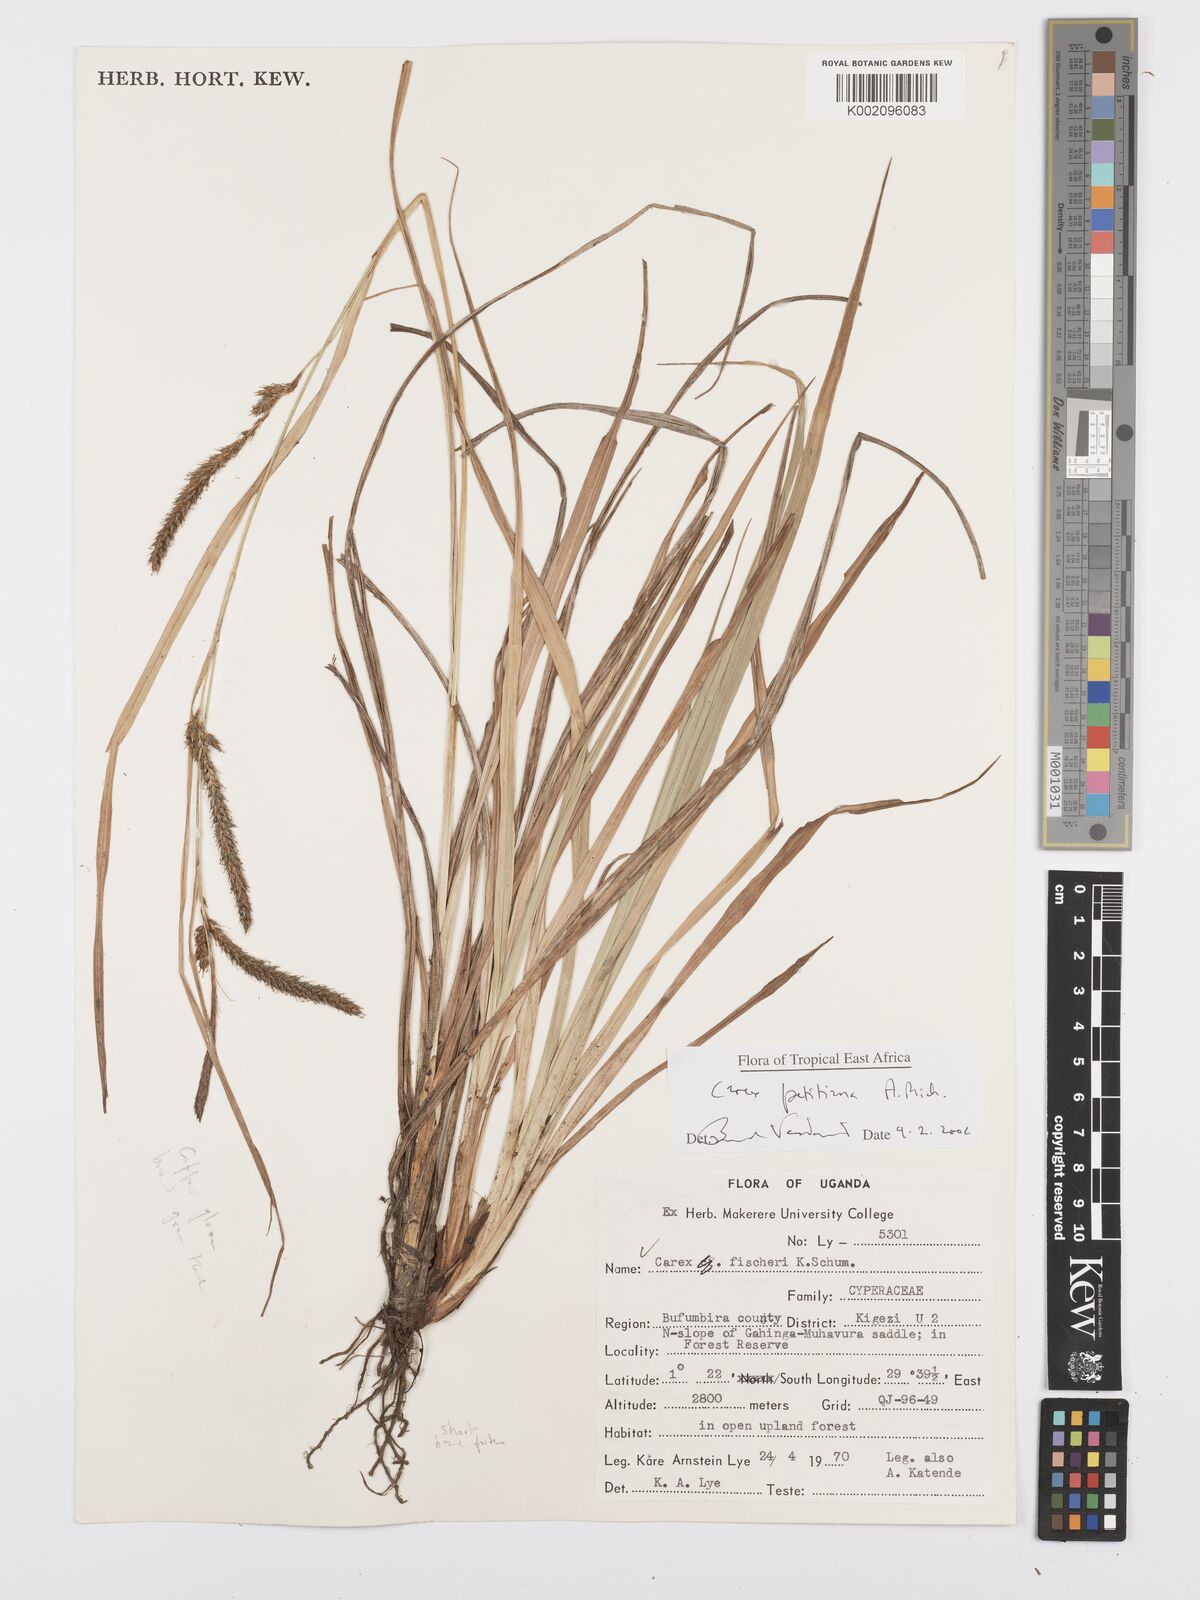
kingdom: Plantae
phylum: Tracheophyta
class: Liliopsida
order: Poales
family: Cyperaceae
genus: Carex
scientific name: Carex fischeri
